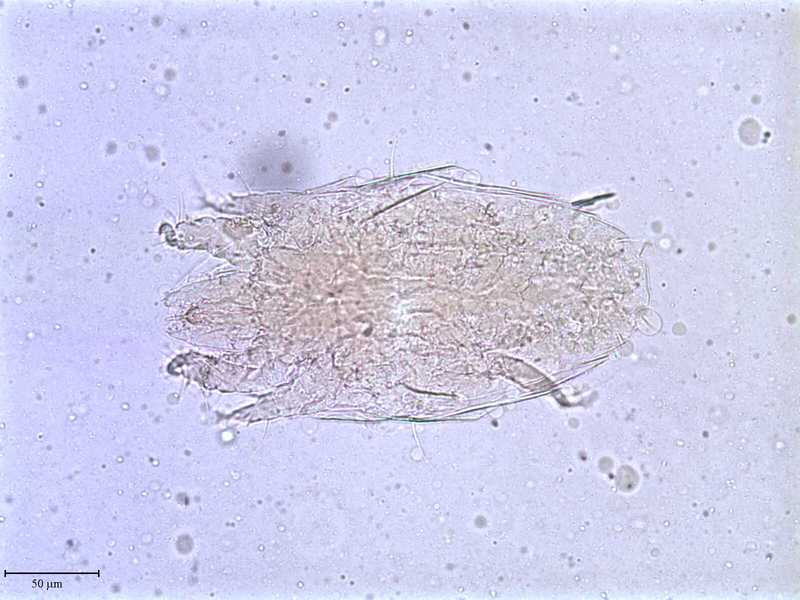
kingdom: Animalia
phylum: Arthropoda
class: Arachnida
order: Trombidiformes
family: Tarsonemidae
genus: Pseudotarsonemoides
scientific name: Pseudotarsonemoides eccoptogasteris
